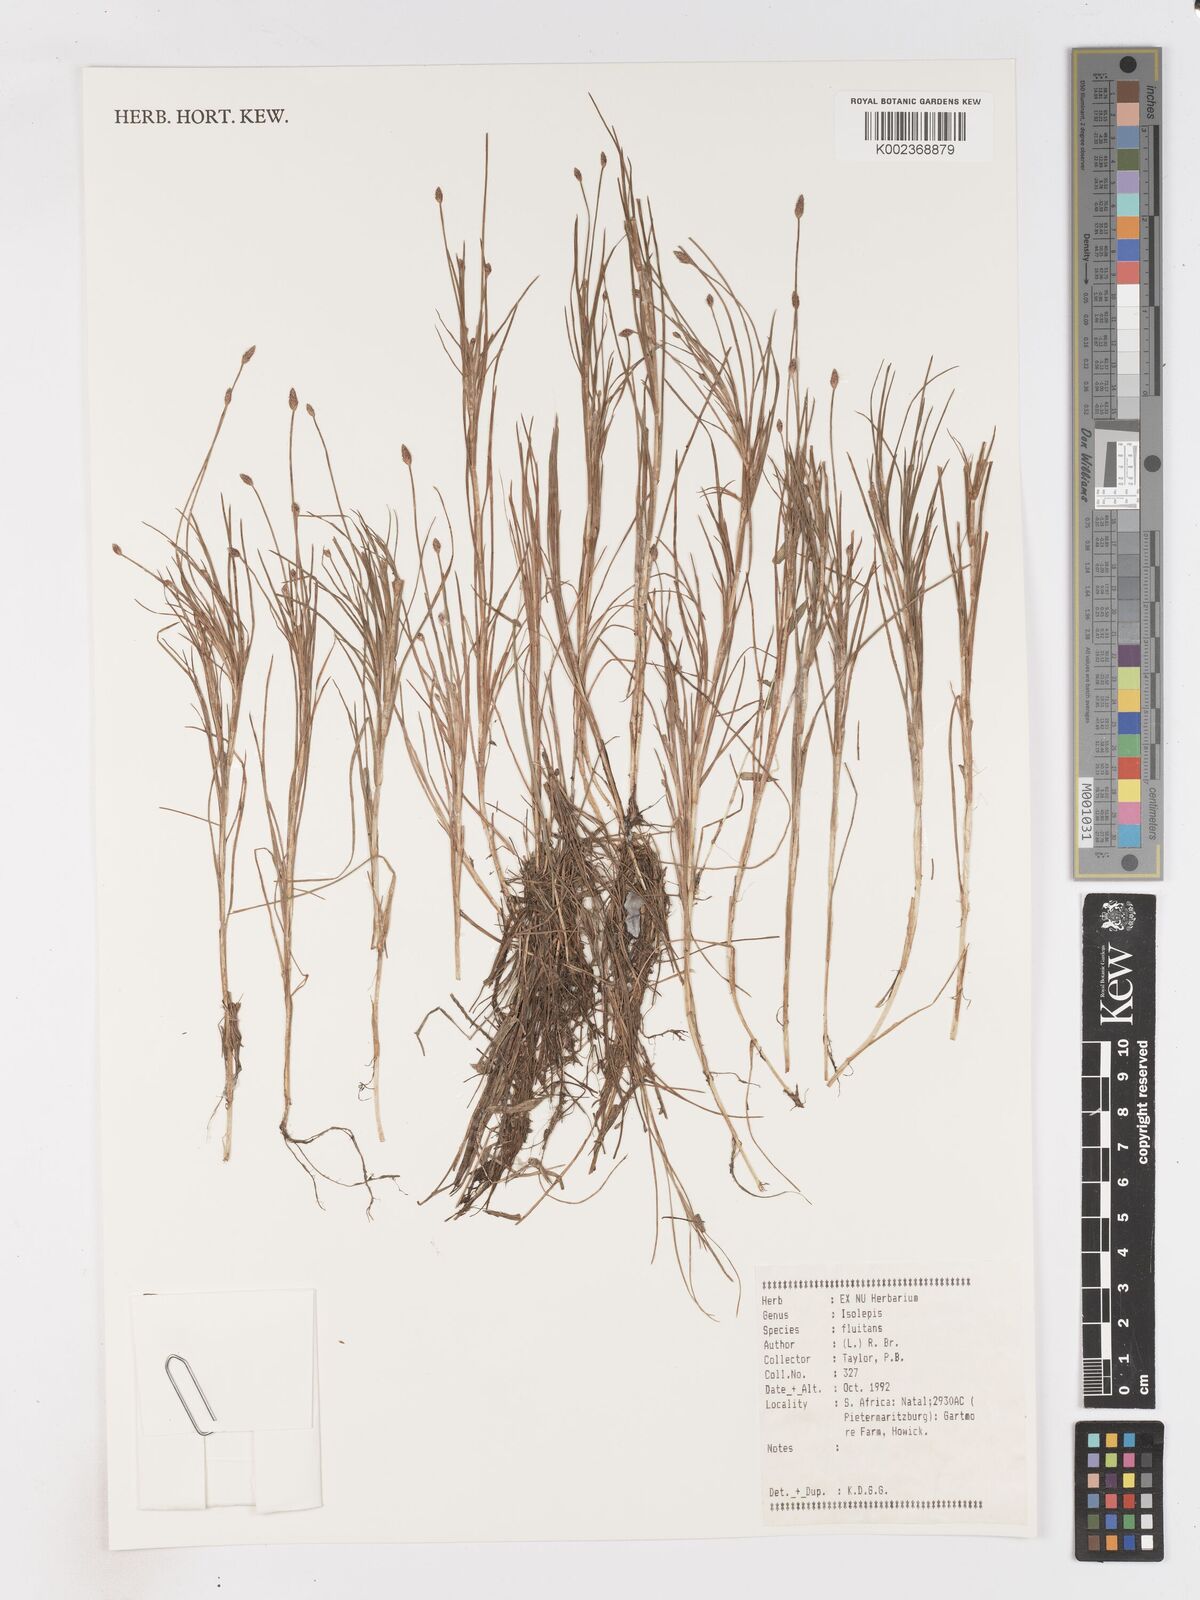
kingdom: Plantae
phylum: Tracheophyta
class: Liliopsida
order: Poales
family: Cyperaceae
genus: Isolepis
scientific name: Isolepis fluitans
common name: Floating club-rush
